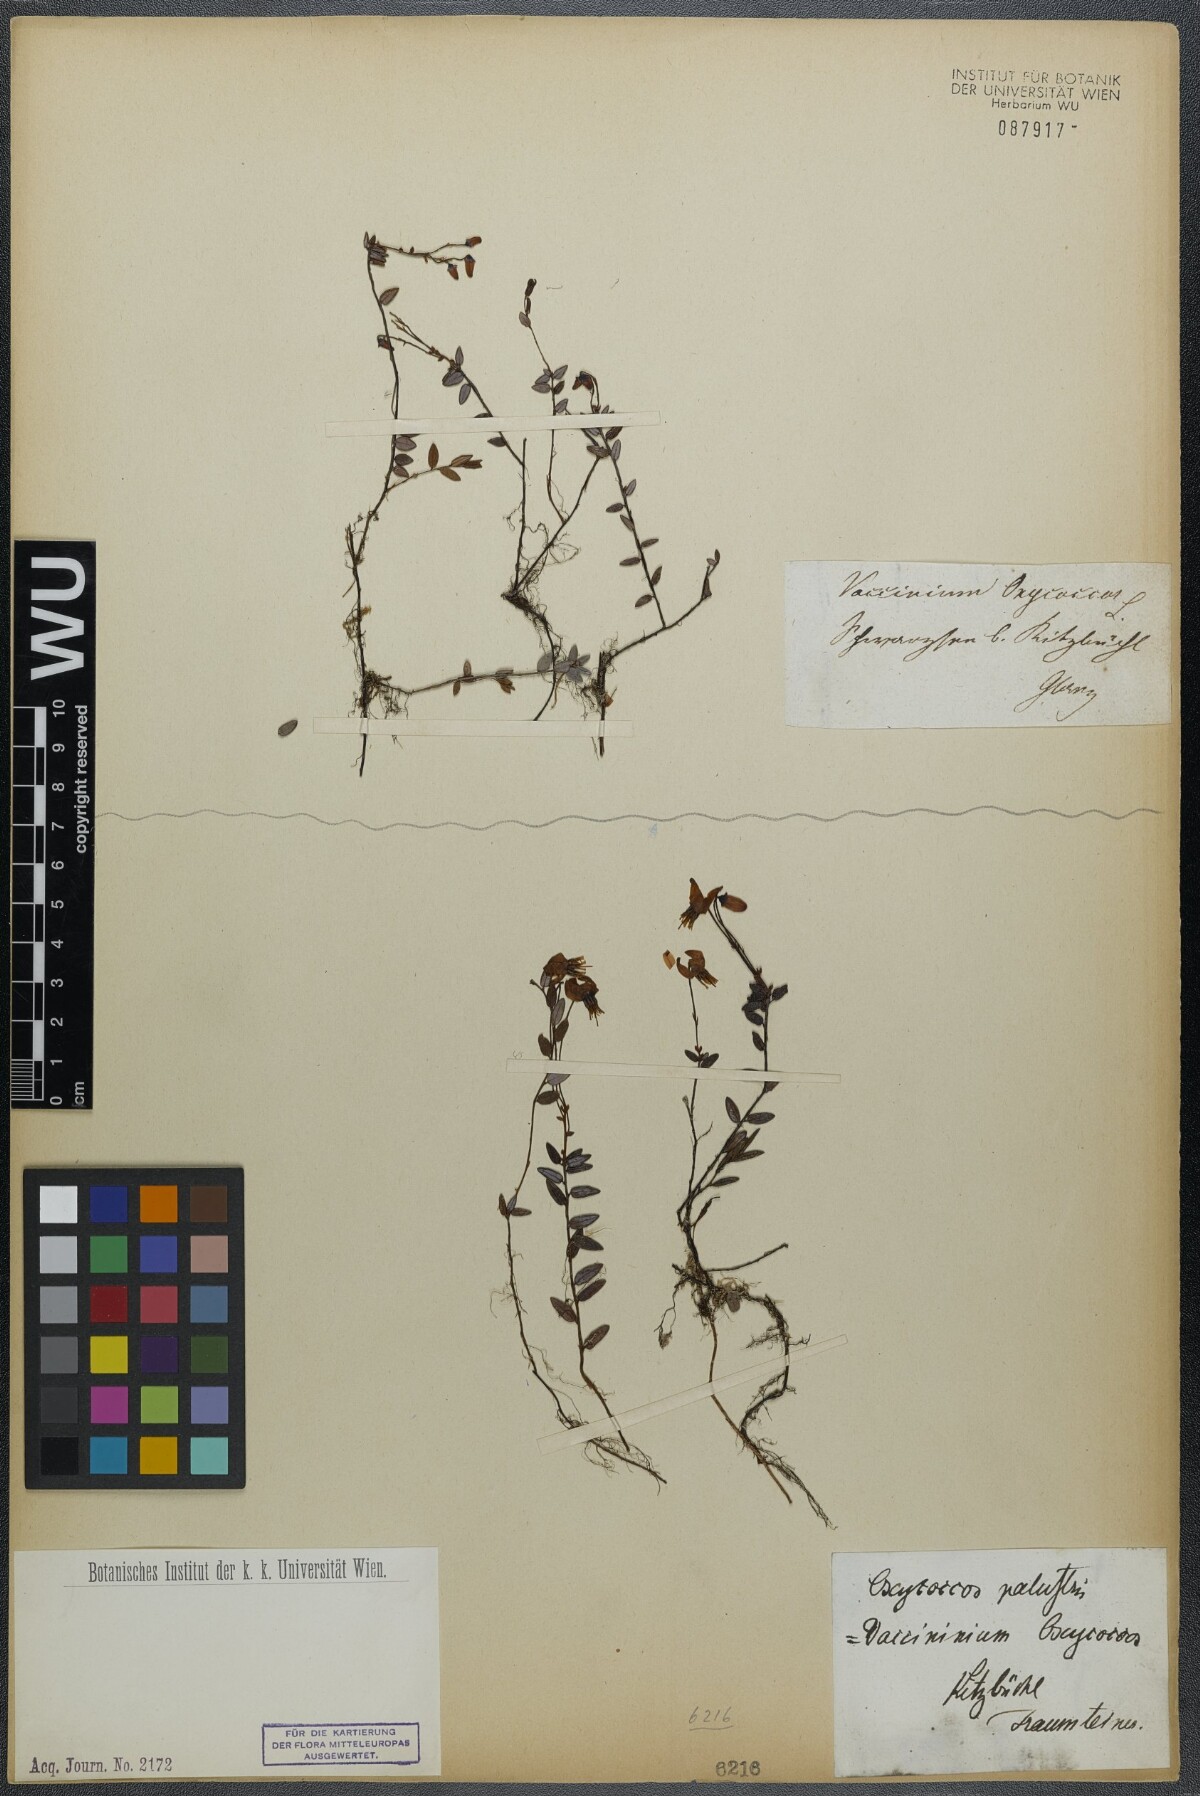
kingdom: Plantae
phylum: Tracheophyta
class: Magnoliopsida
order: Ericales
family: Ericaceae
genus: Vaccinium
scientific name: Vaccinium oxycoccos
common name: Cranberry
